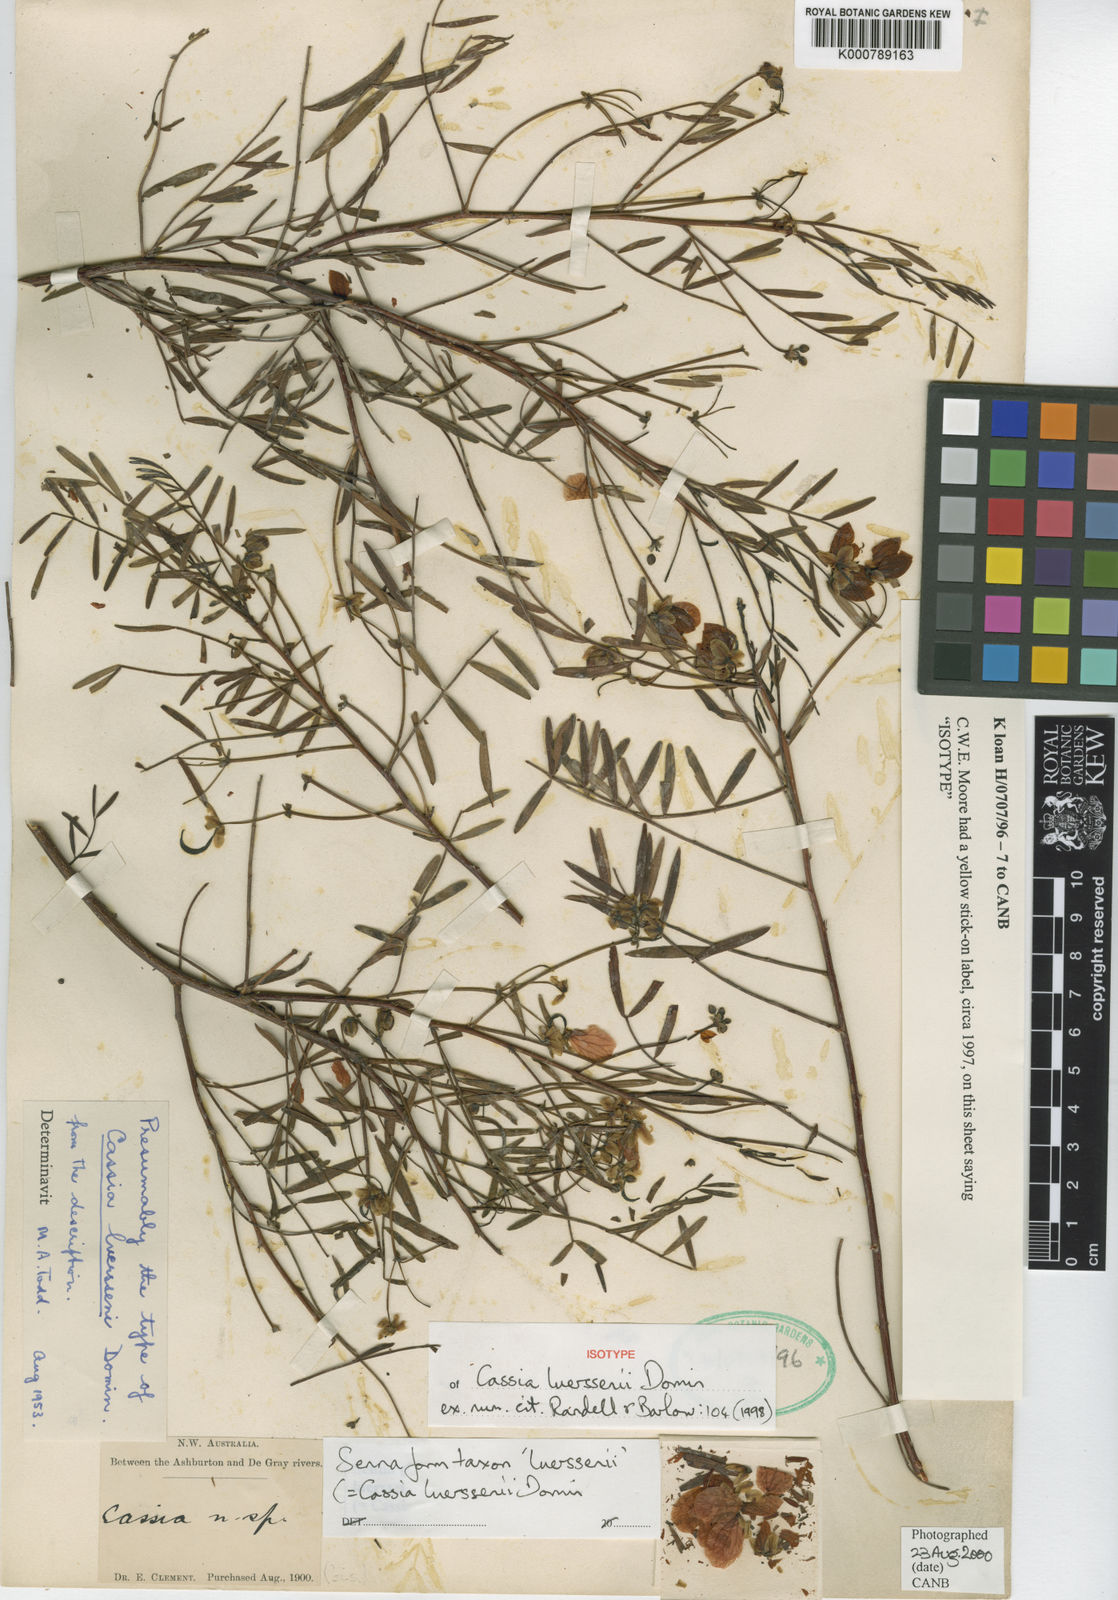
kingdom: Plantae
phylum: Tracheophyta
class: Magnoliopsida
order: Fabales
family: Fabaceae
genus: Senna
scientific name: Senna
